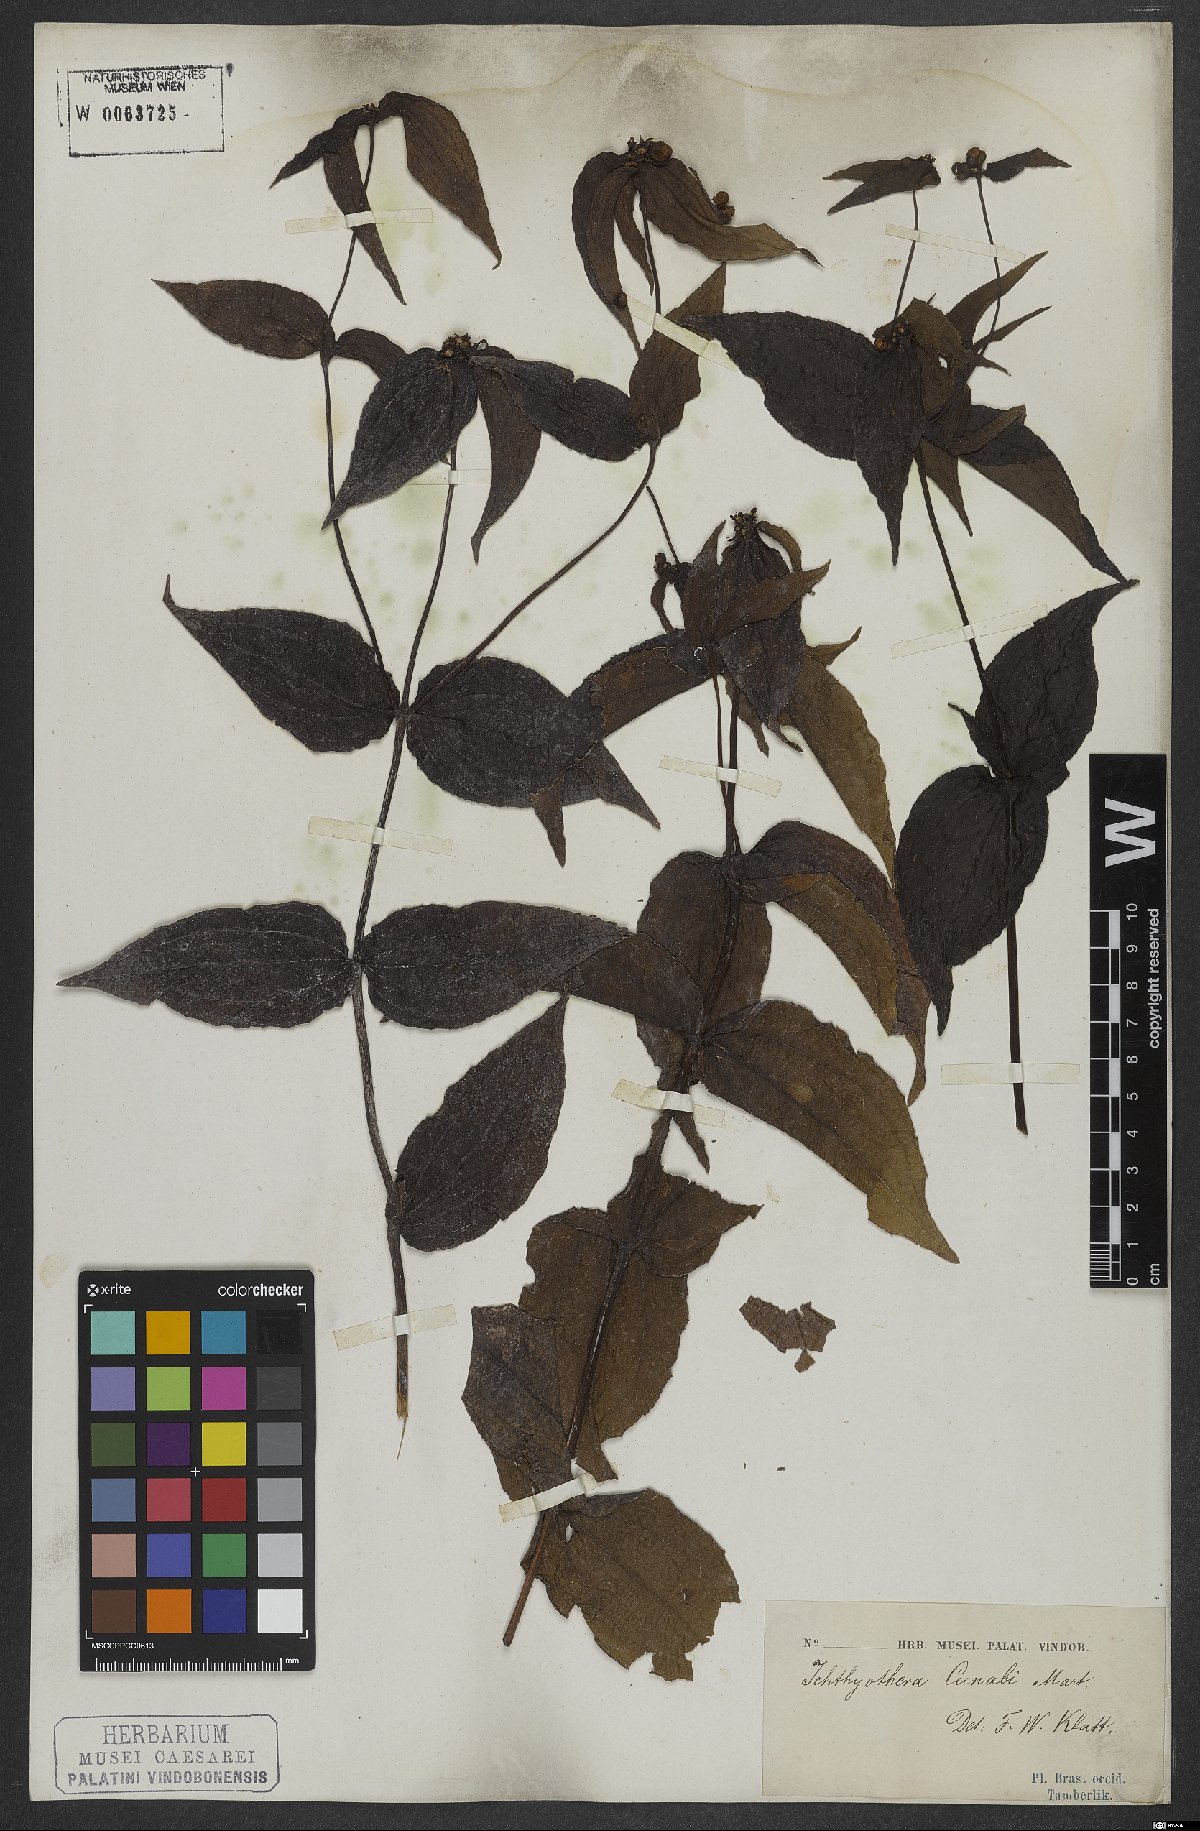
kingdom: Plantae
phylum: Tracheophyta
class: Magnoliopsida
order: Asterales
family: Asteraceae
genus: Ichthyothere
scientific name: Ichthyothere cunabi
